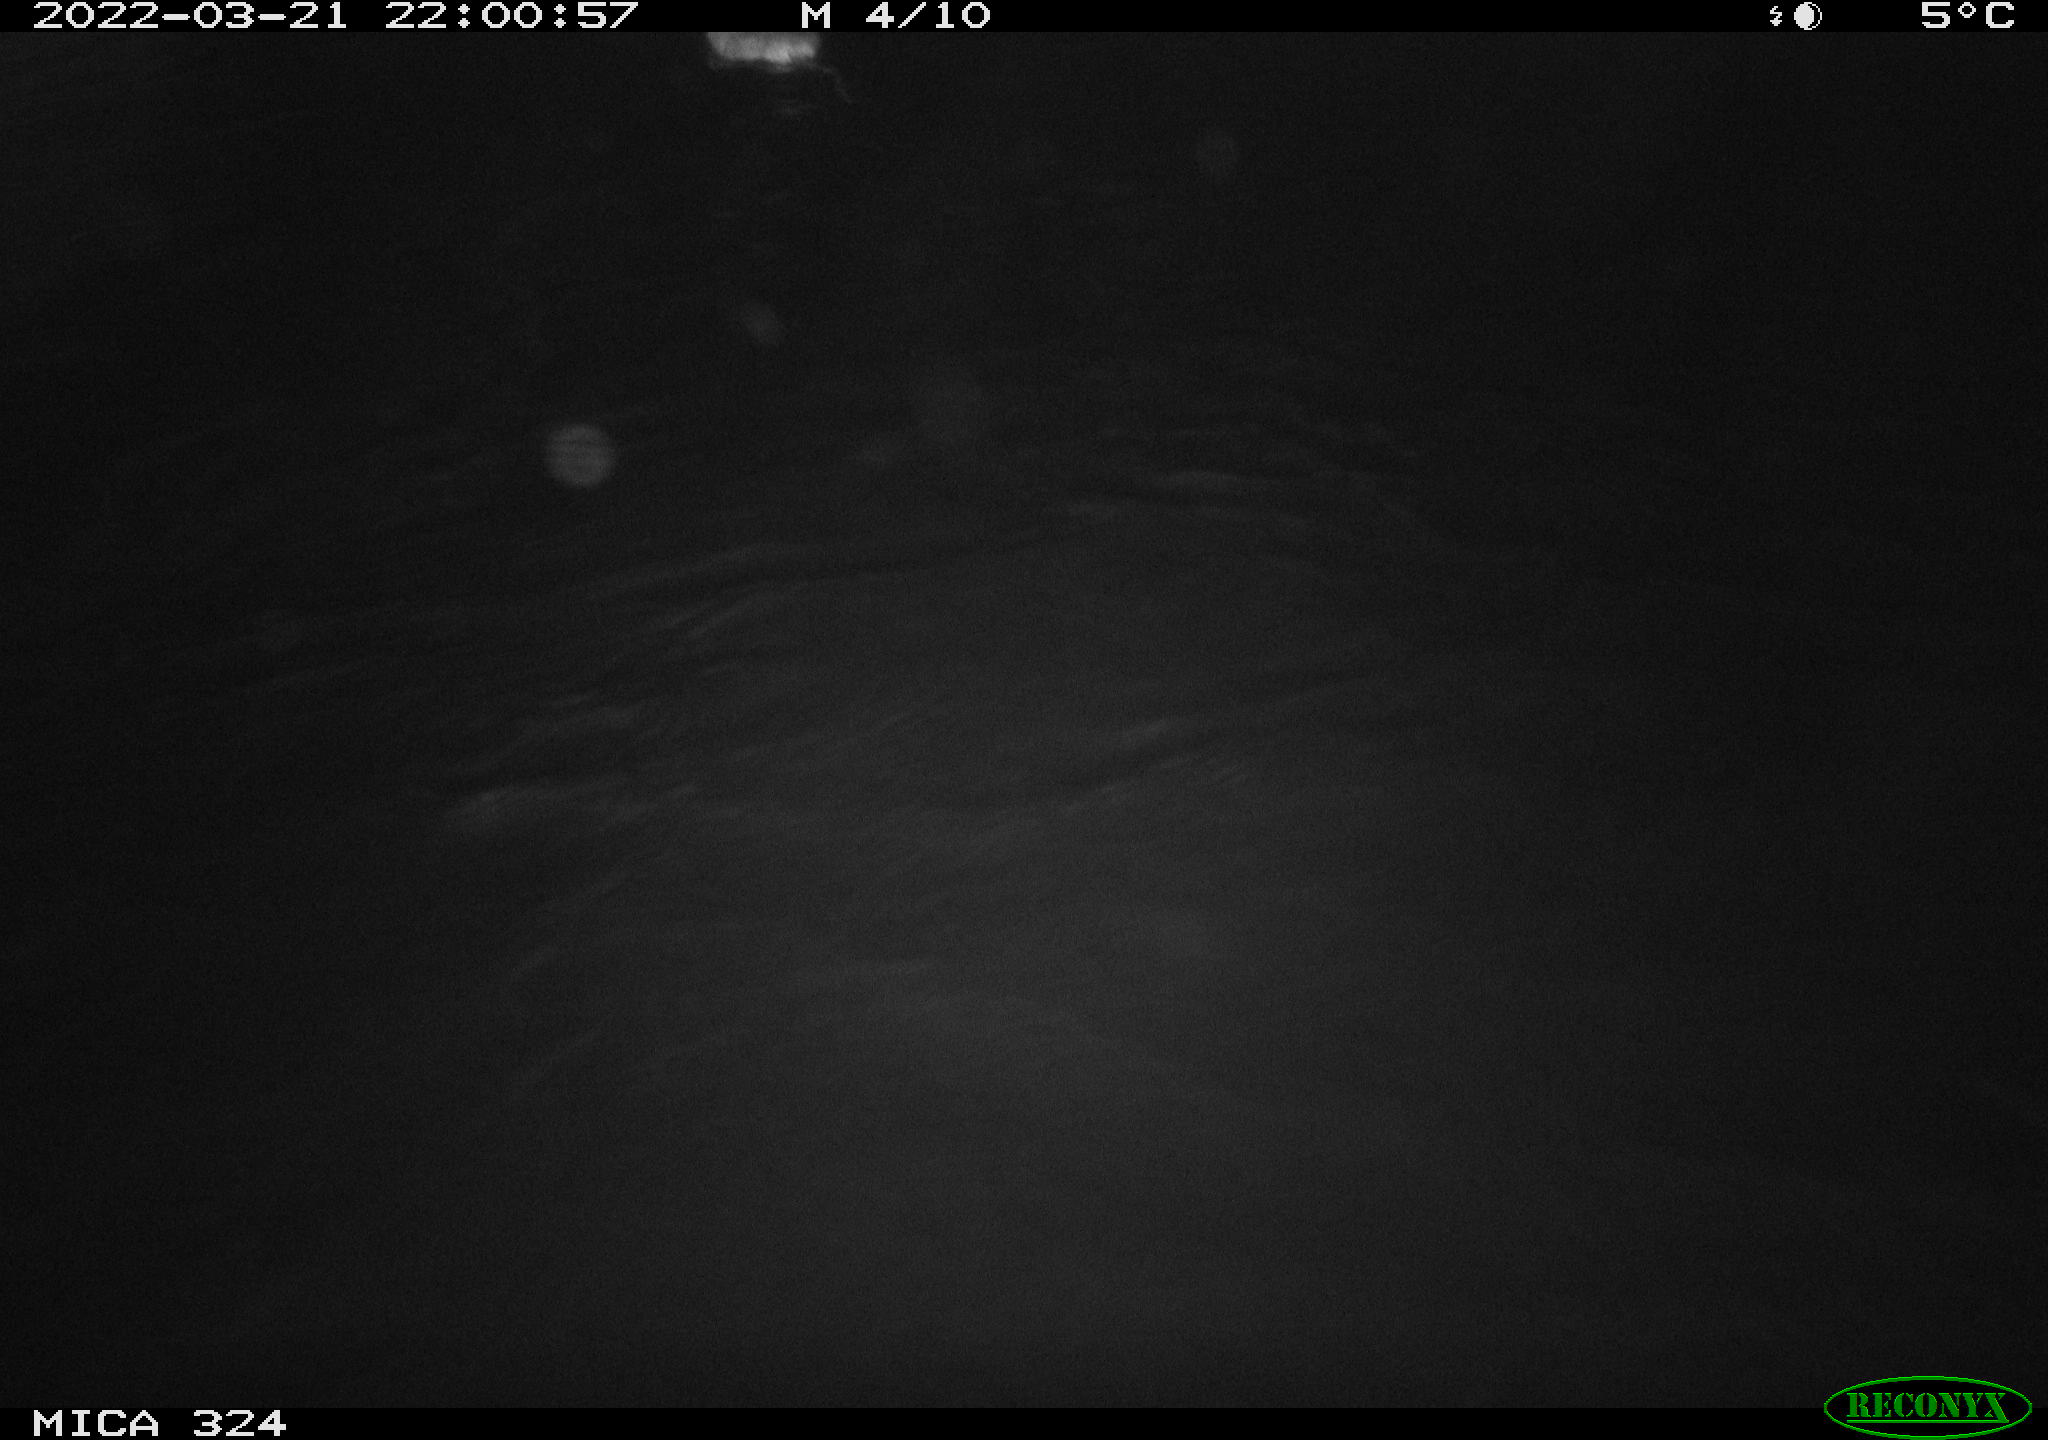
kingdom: Animalia
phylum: Chordata
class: Mammalia
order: Rodentia
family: Cricetidae
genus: Ondatra
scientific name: Ondatra zibethicus
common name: Muskrat
